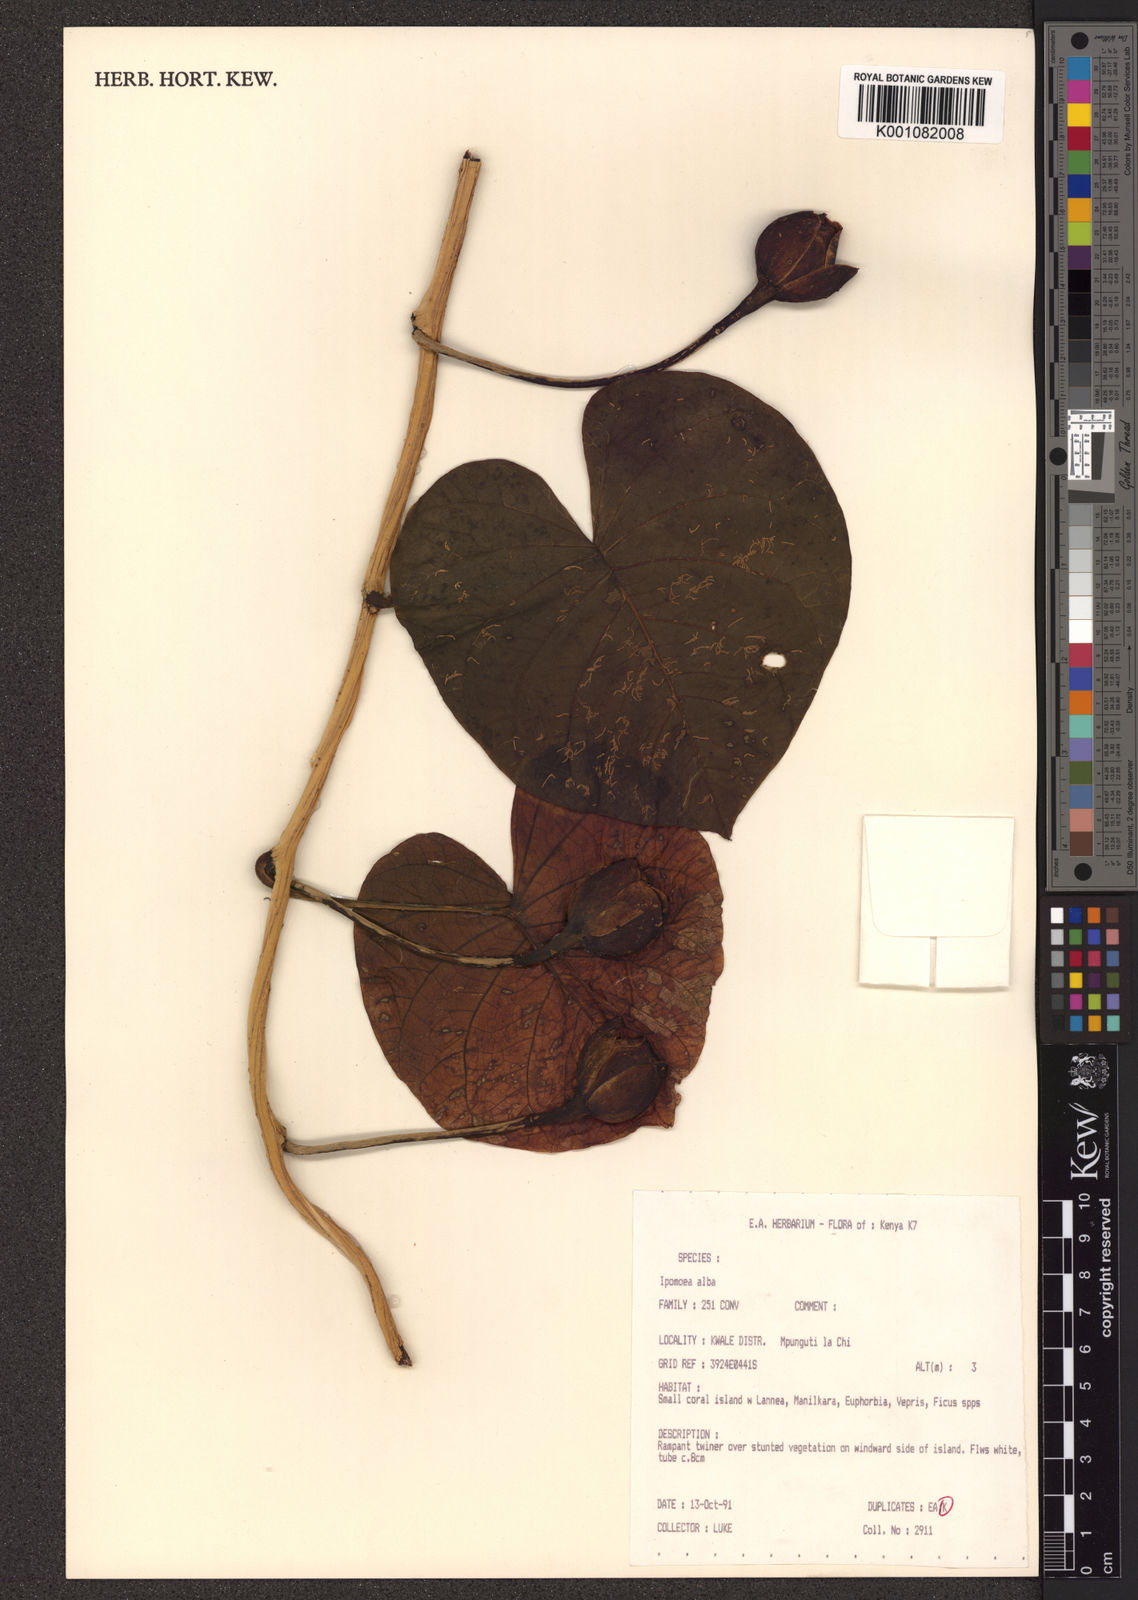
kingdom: Plantae
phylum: Tracheophyta
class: Magnoliopsida
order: Solanales
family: Convolvulaceae
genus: Ipomoea
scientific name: Ipomoea violacea
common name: Beach moonflower
